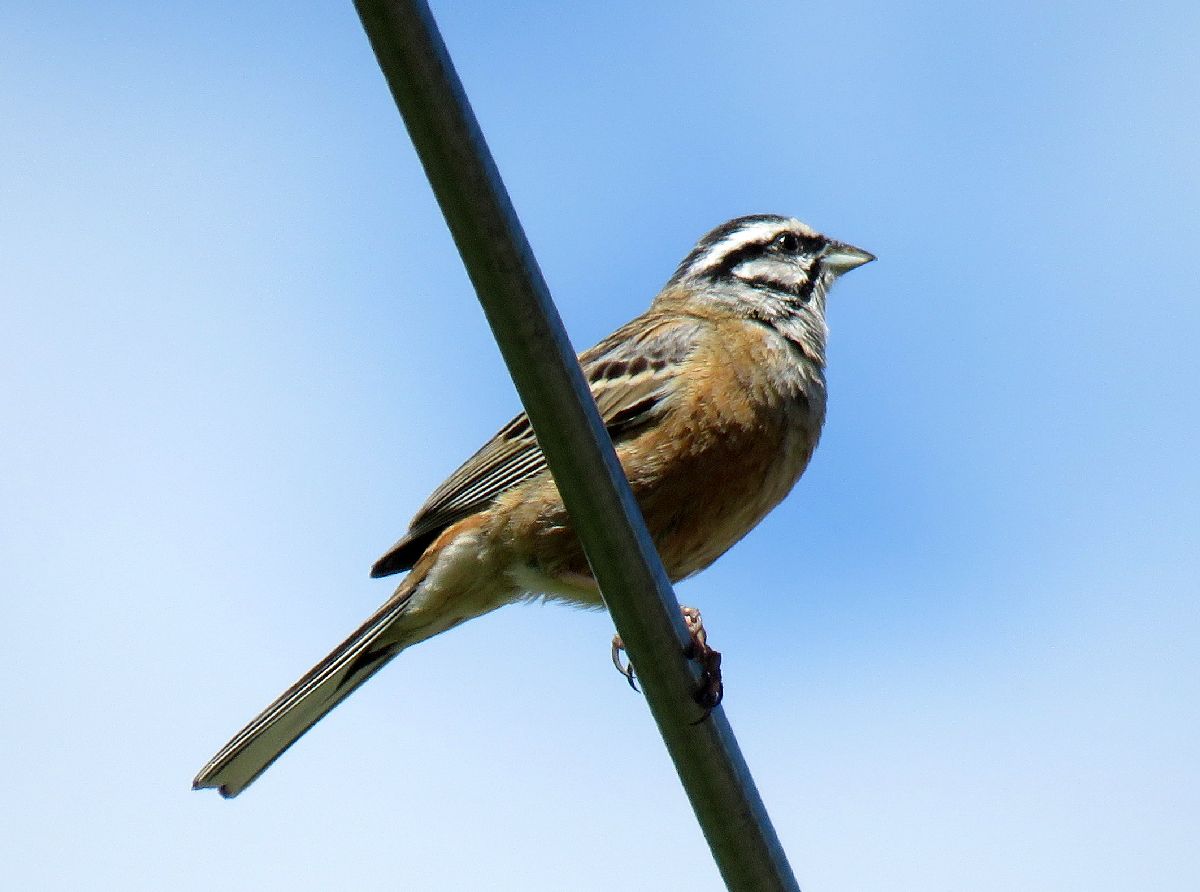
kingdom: Animalia
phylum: Chordata
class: Aves
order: Passeriformes
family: Emberizidae
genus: Emberiza
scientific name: Emberiza cia
